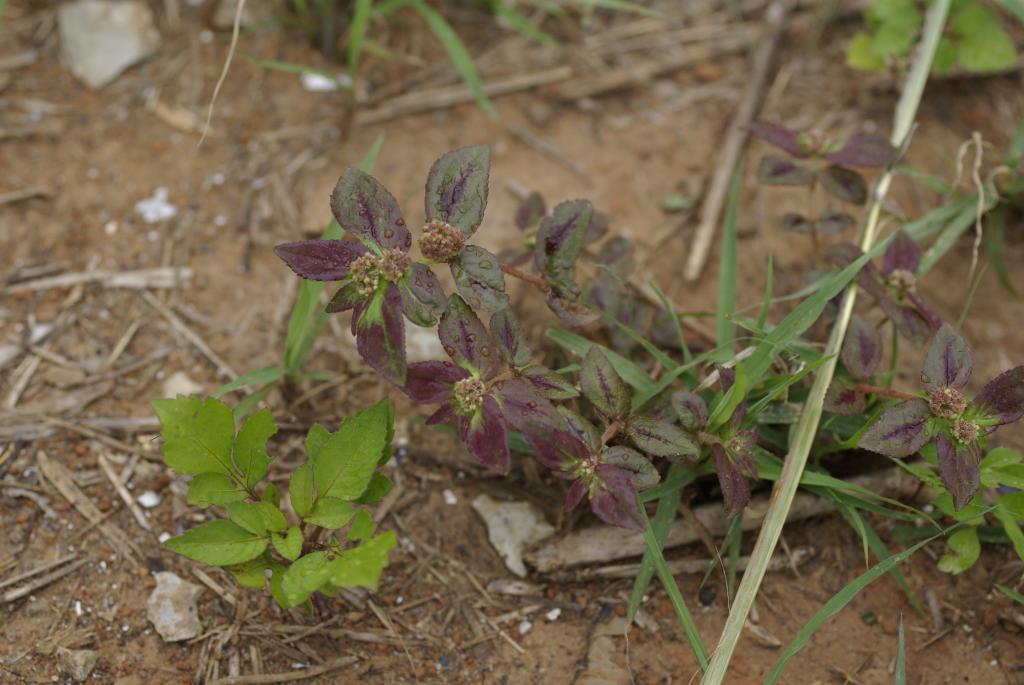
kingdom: Plantae
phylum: Tracheophyta
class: Magnoliopsida
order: Malpighiales
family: Euphorbiaceae
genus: Euphorbia
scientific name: Euphorbia hirta
